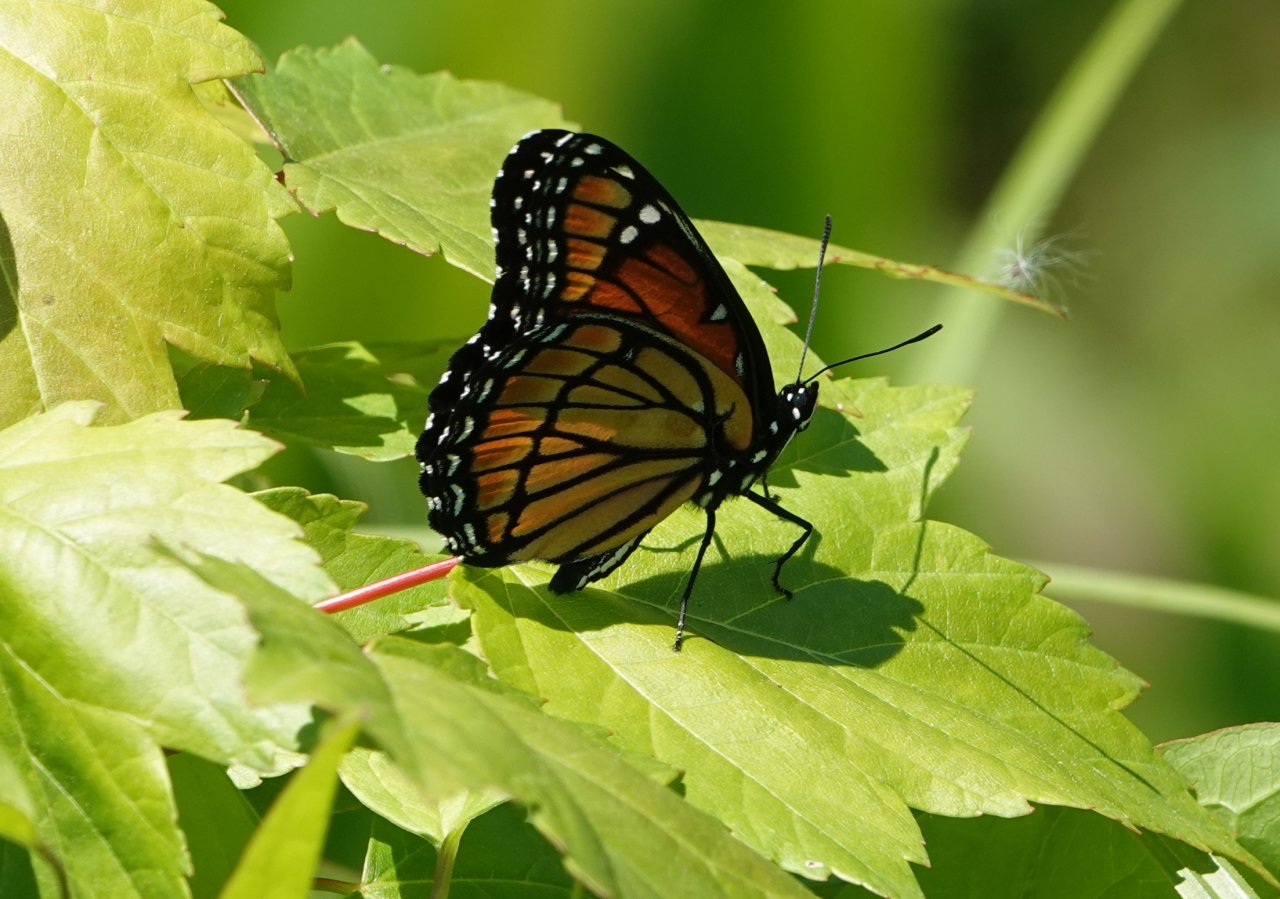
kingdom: Animalia
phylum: Arthropoda
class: Insecta
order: Lepidoptera
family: Nymphalidae
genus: Limenitis
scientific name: Limenitis archippus
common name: Viceroy
